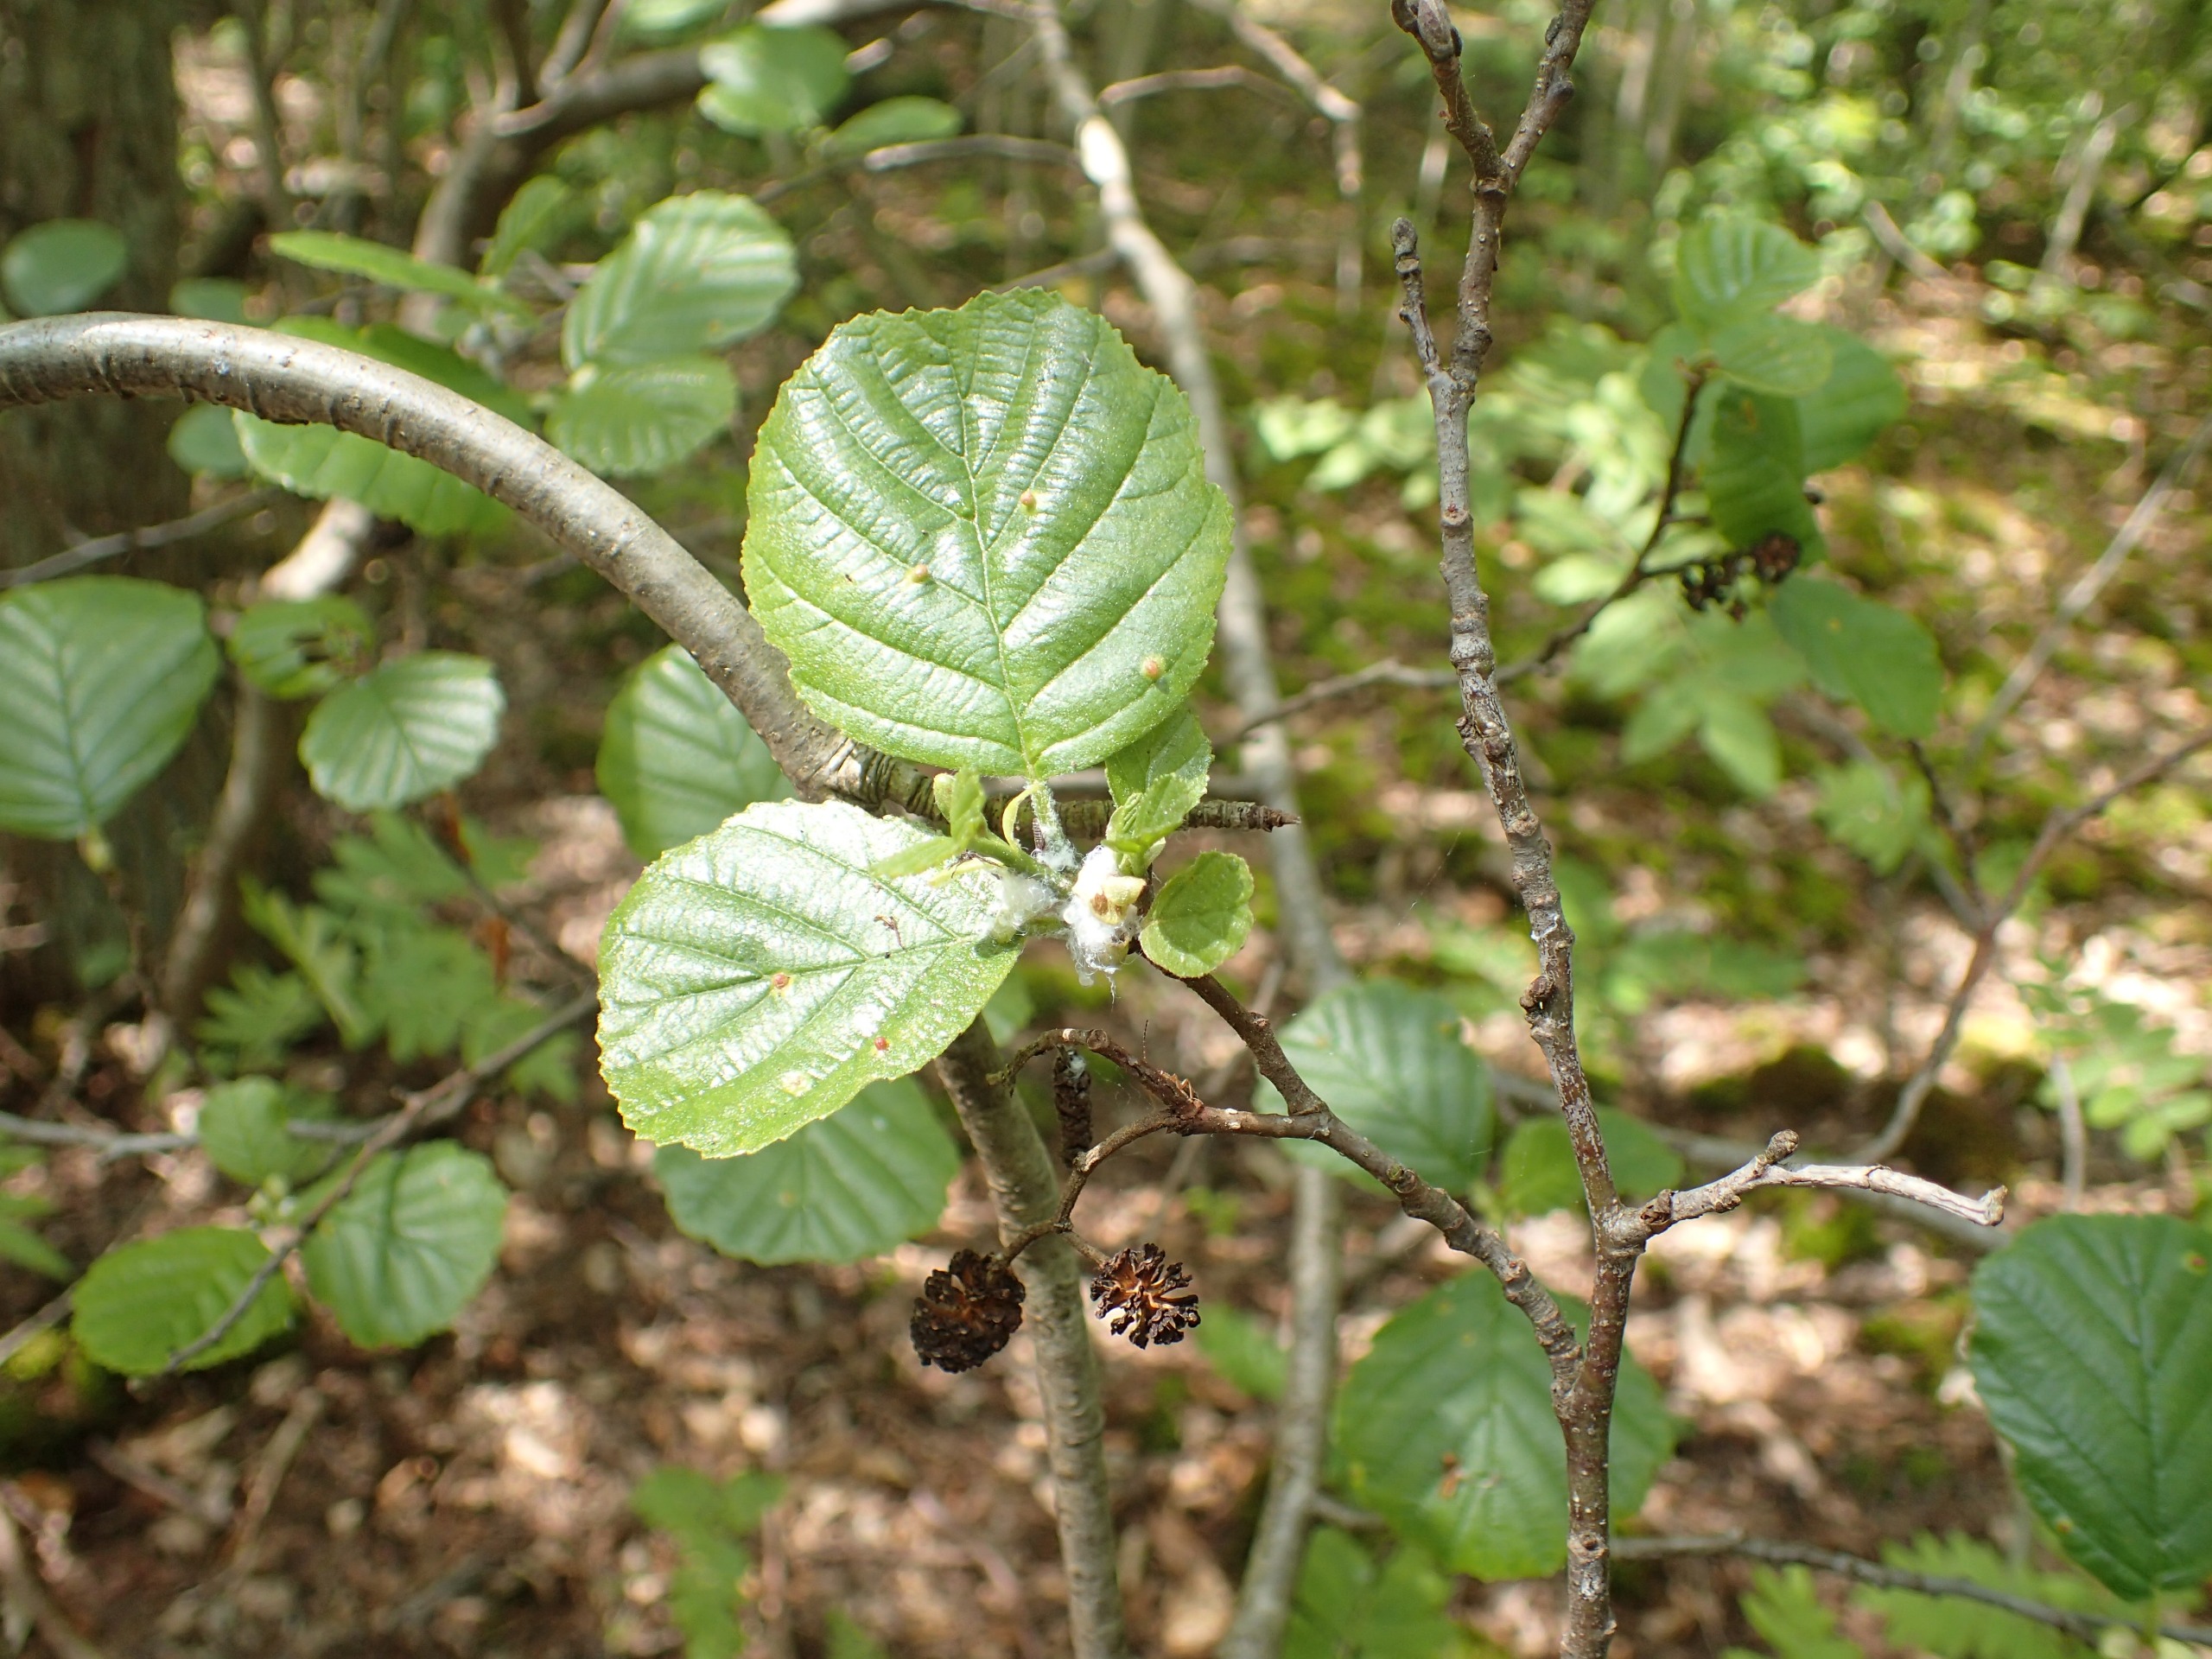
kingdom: Plantae
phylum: Tracheophyta
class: Magnoliopsida
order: Fagales
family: Betulaceae
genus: Alnus
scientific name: Alnus glutinosa
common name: Rød-el
